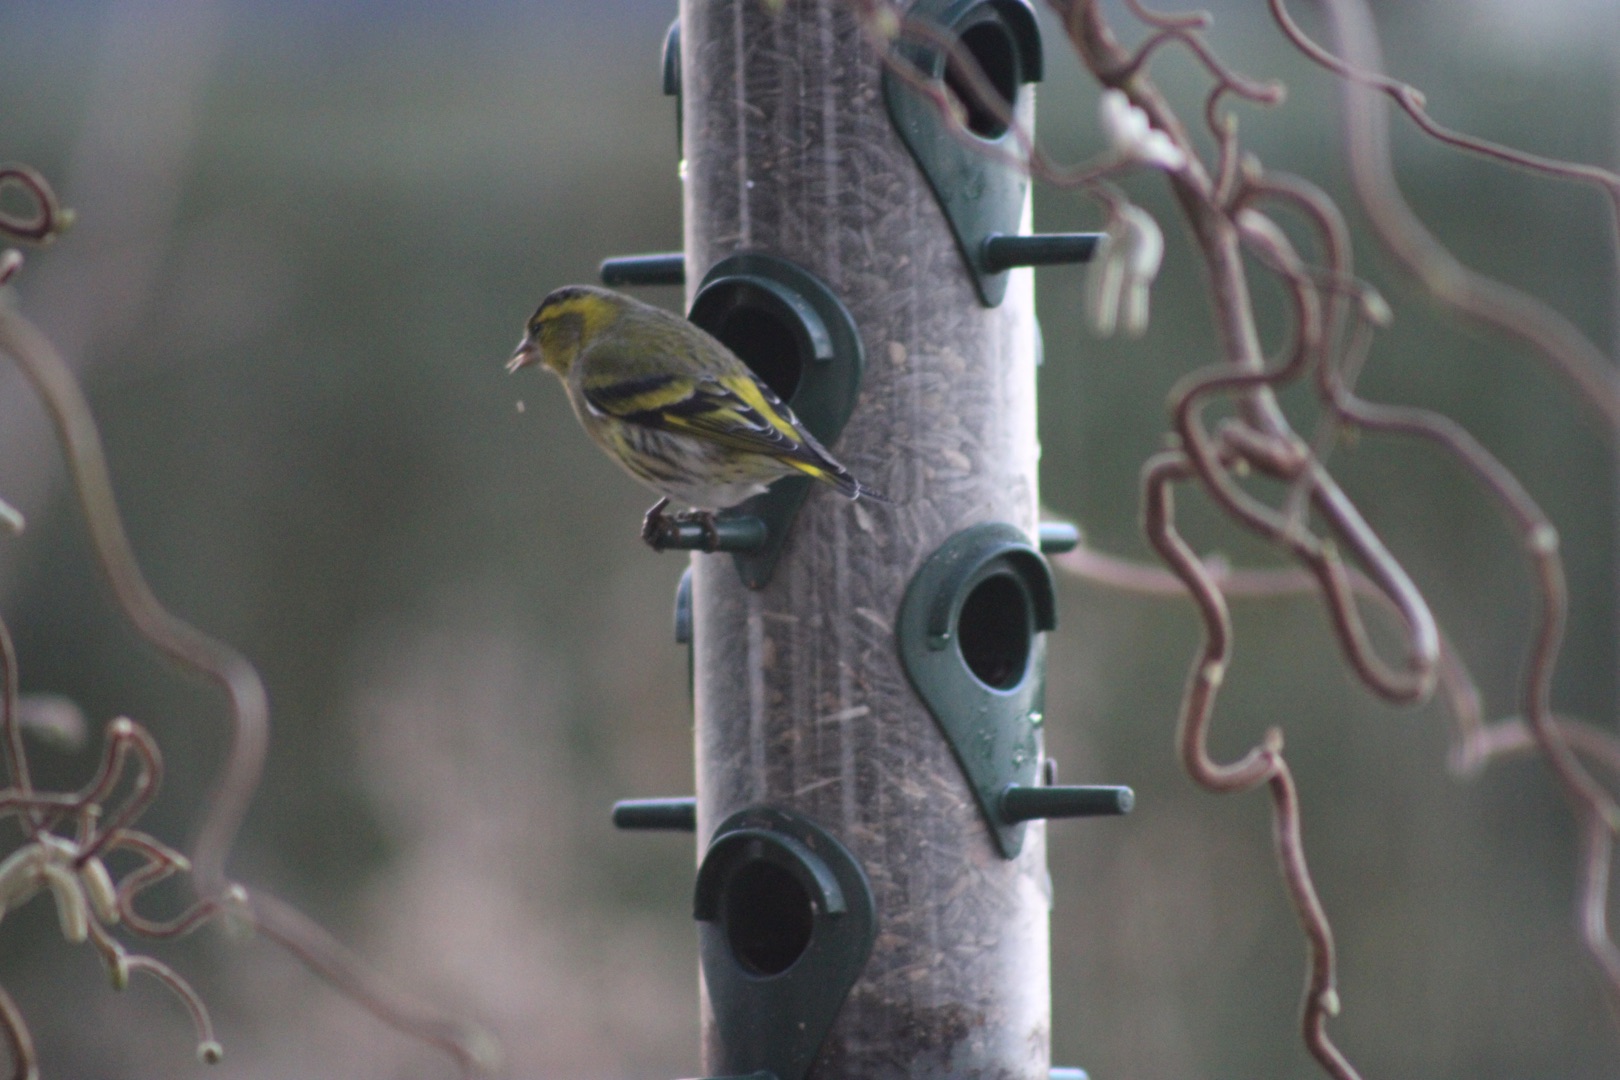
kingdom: Animalia
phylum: Chordata
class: Aves
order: Passeriformes
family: Fringillidae
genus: Spinus
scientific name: Spinus spinus
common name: Grønsisken
